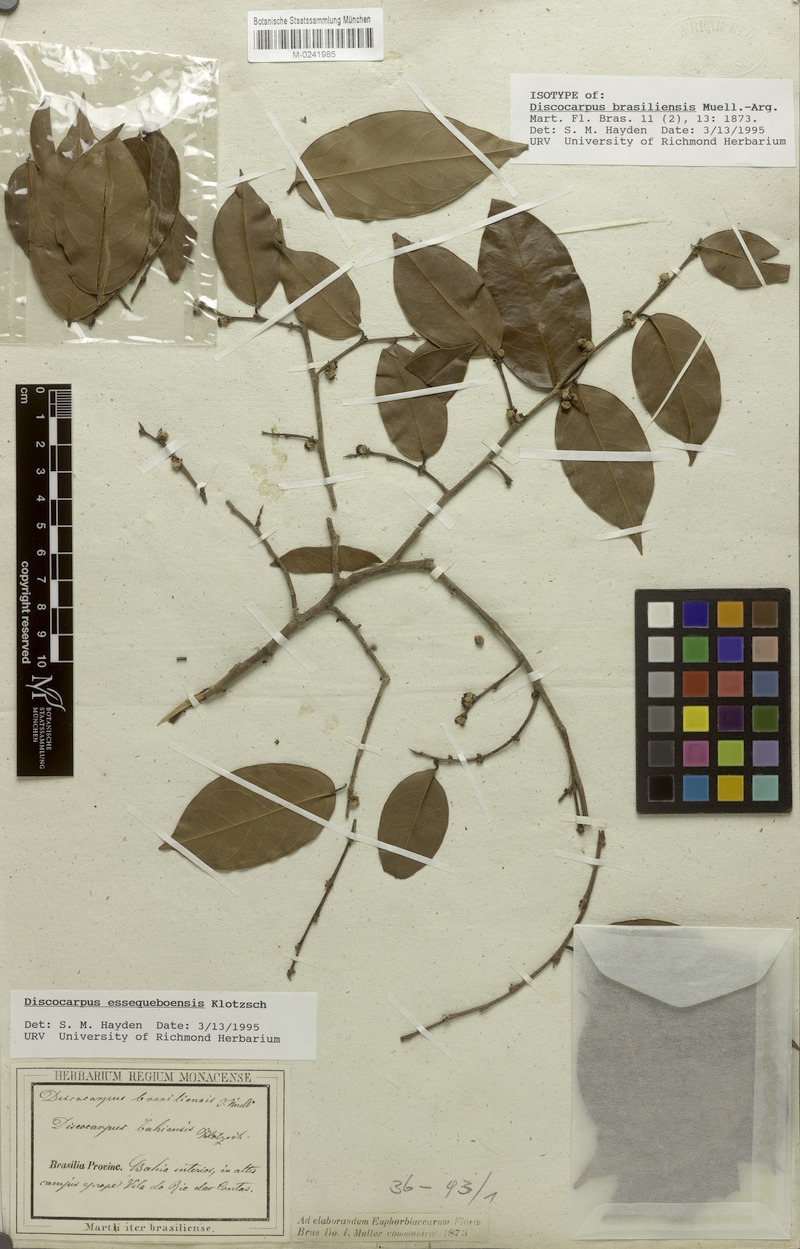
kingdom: Plantae
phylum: Tracheophyta
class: Magnoliopsida
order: Malpighiales
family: Phyllanthaceae
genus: Discocarpus
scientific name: Discocarpus essequeboensis
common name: Sqaure-wood
